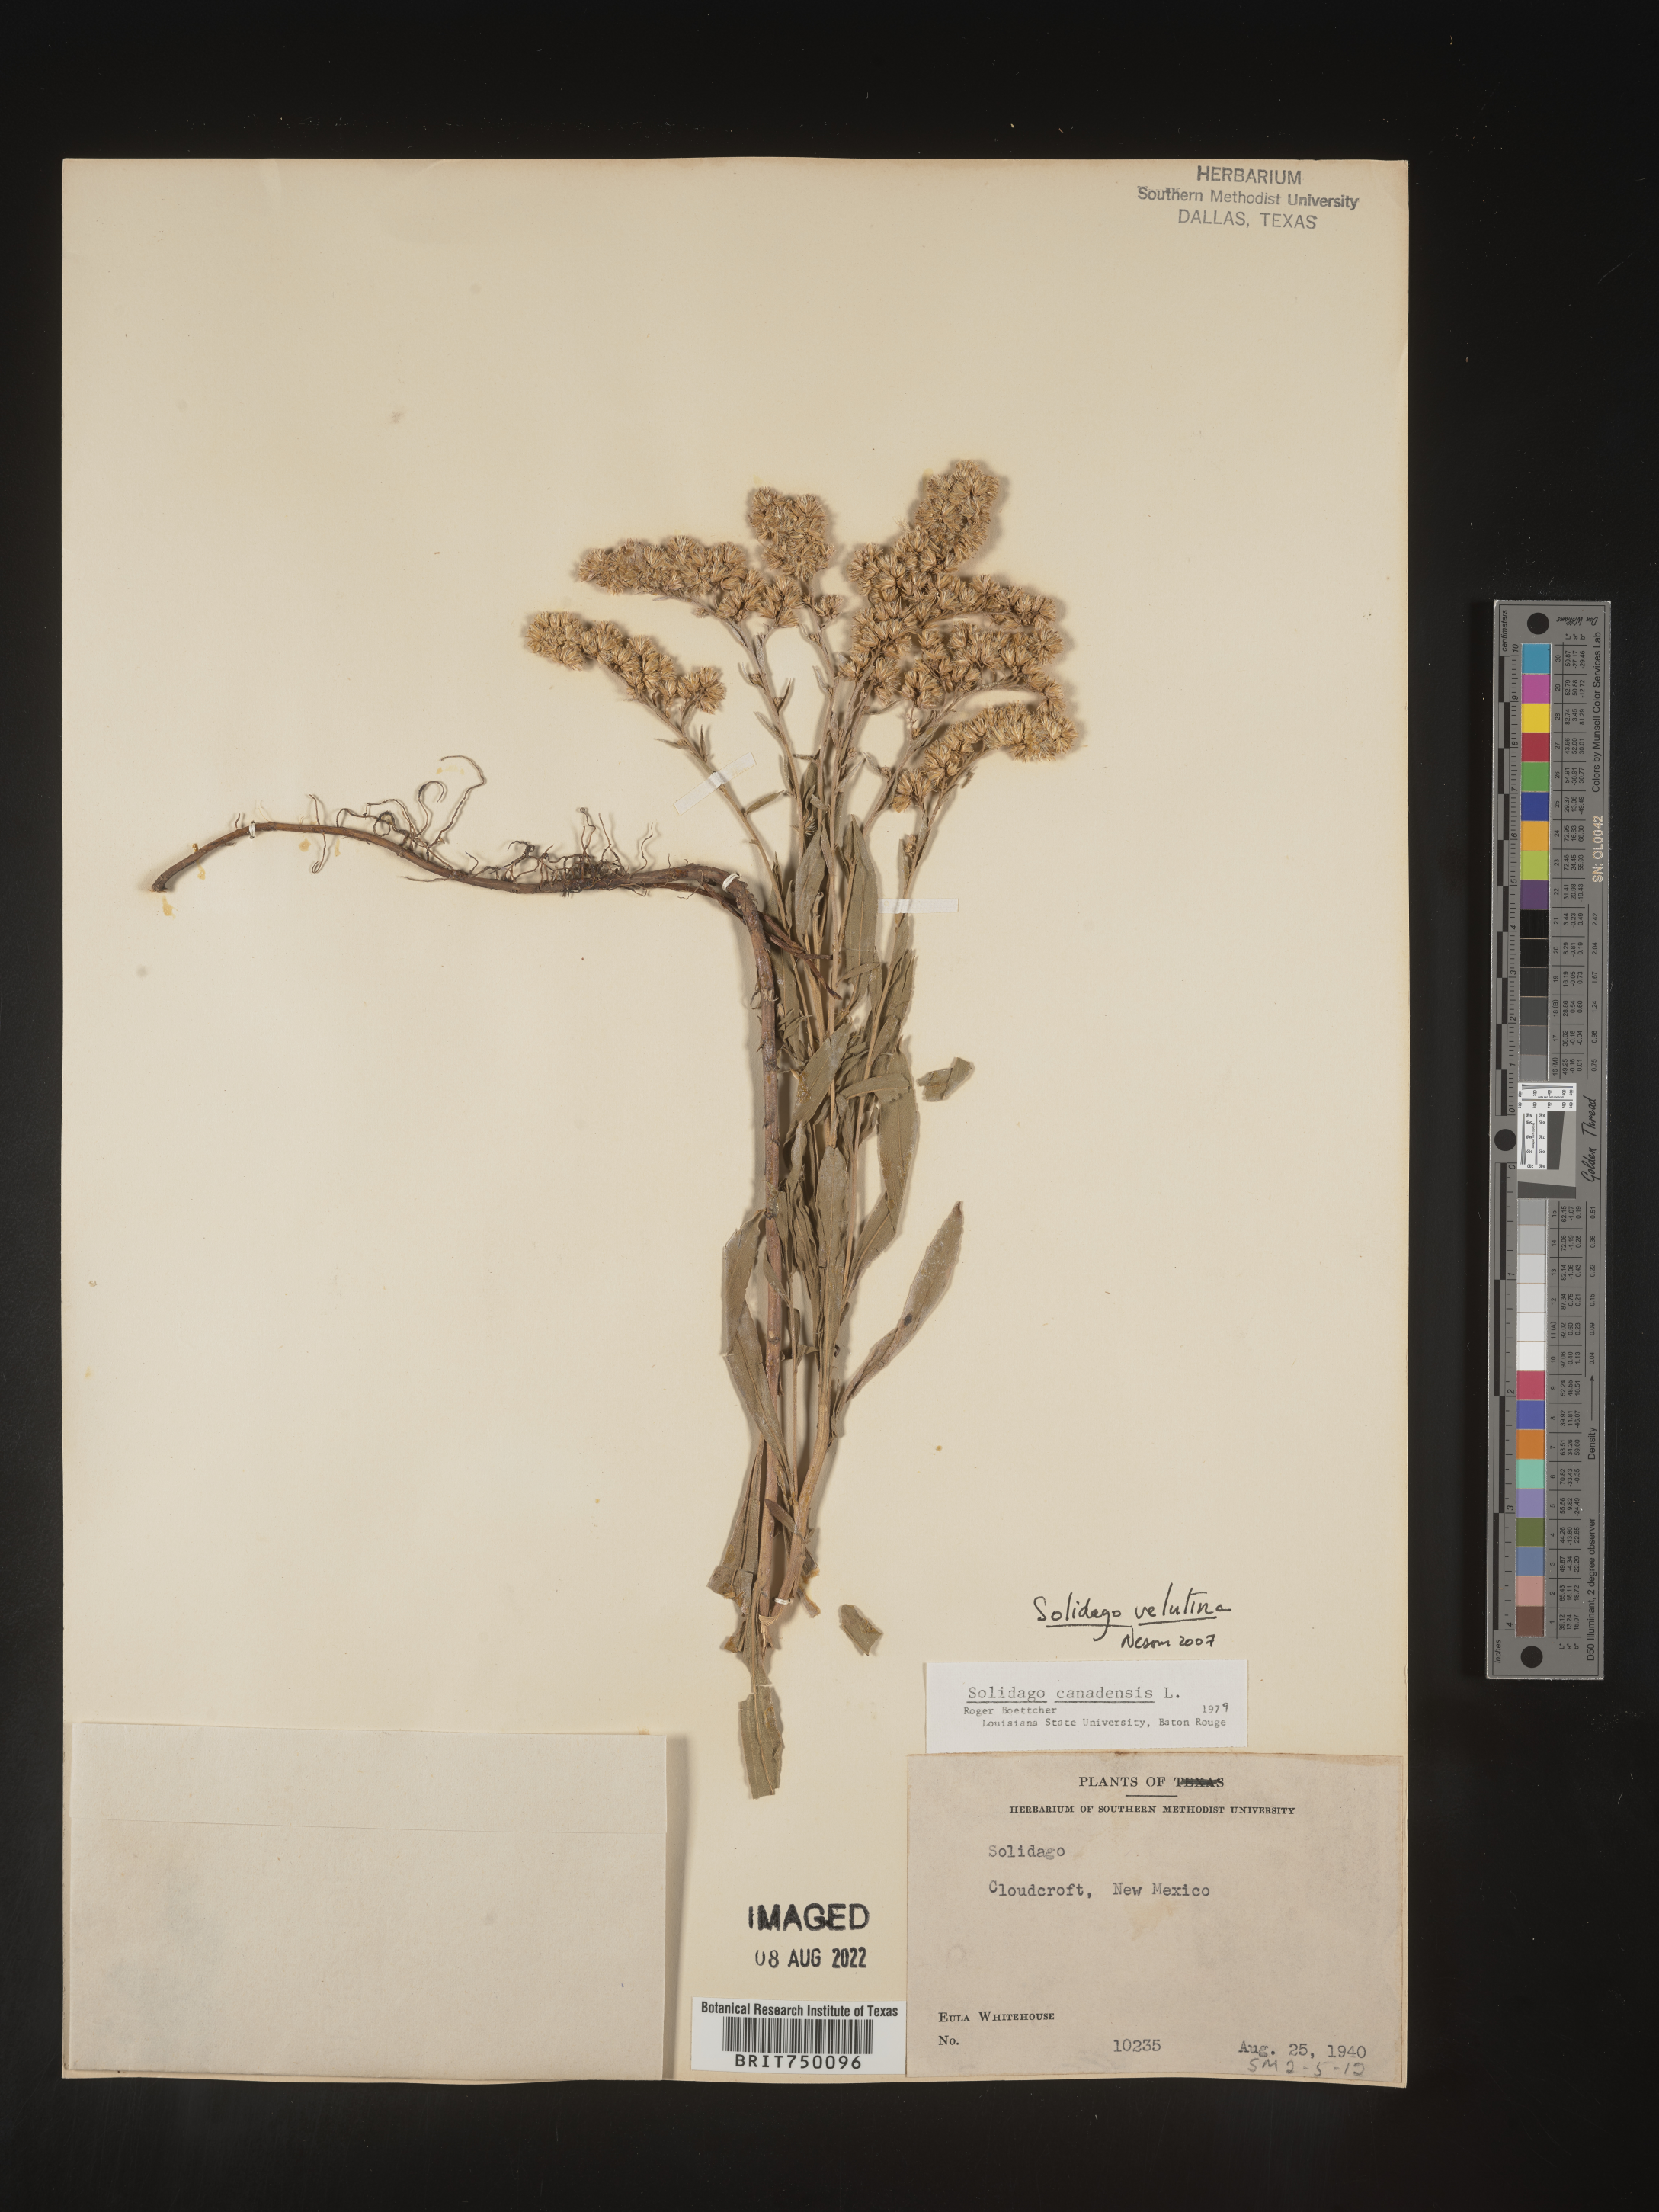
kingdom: Plantae
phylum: Tracheophyta
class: Magnoliopsida
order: Asterales
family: Asteraceae
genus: Solidago
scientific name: Solidago velutina
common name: Three-nerve goldenrod
